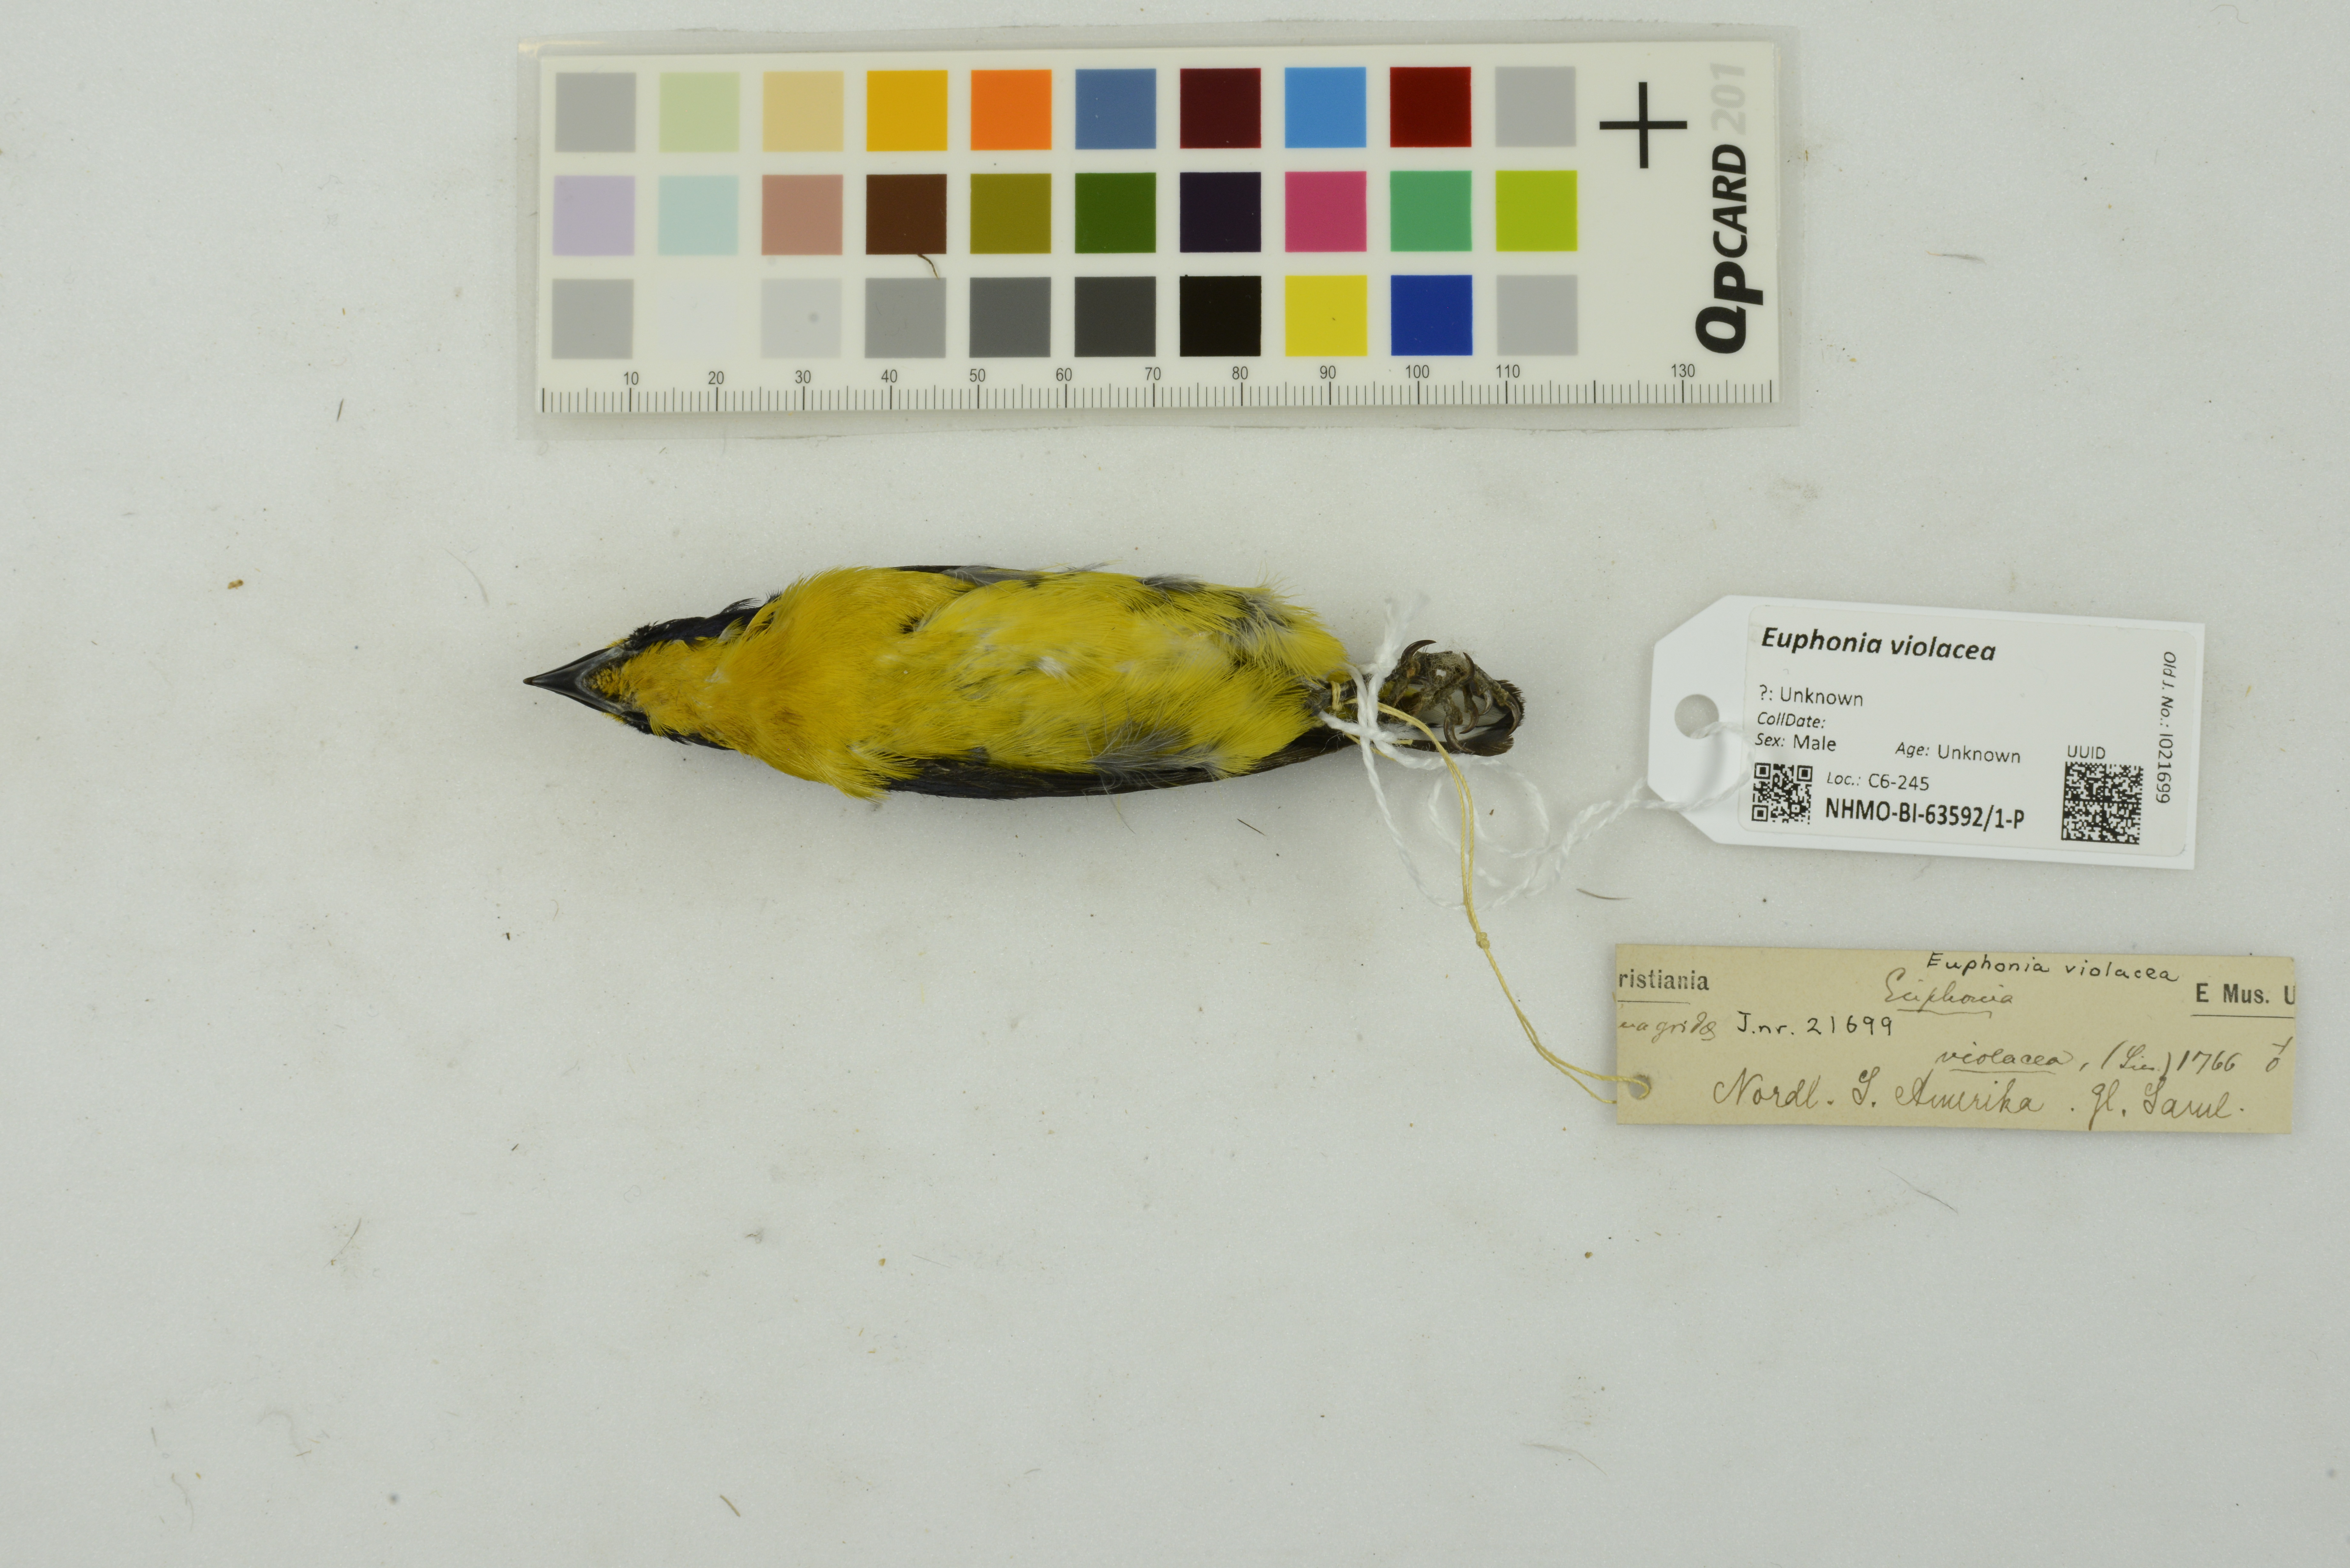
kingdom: Animalia
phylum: Chordata
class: Aves
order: Passeriformes
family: Fringillidae
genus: Euphonia
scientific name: Euphonia violacea
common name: Violaceous euphonia
